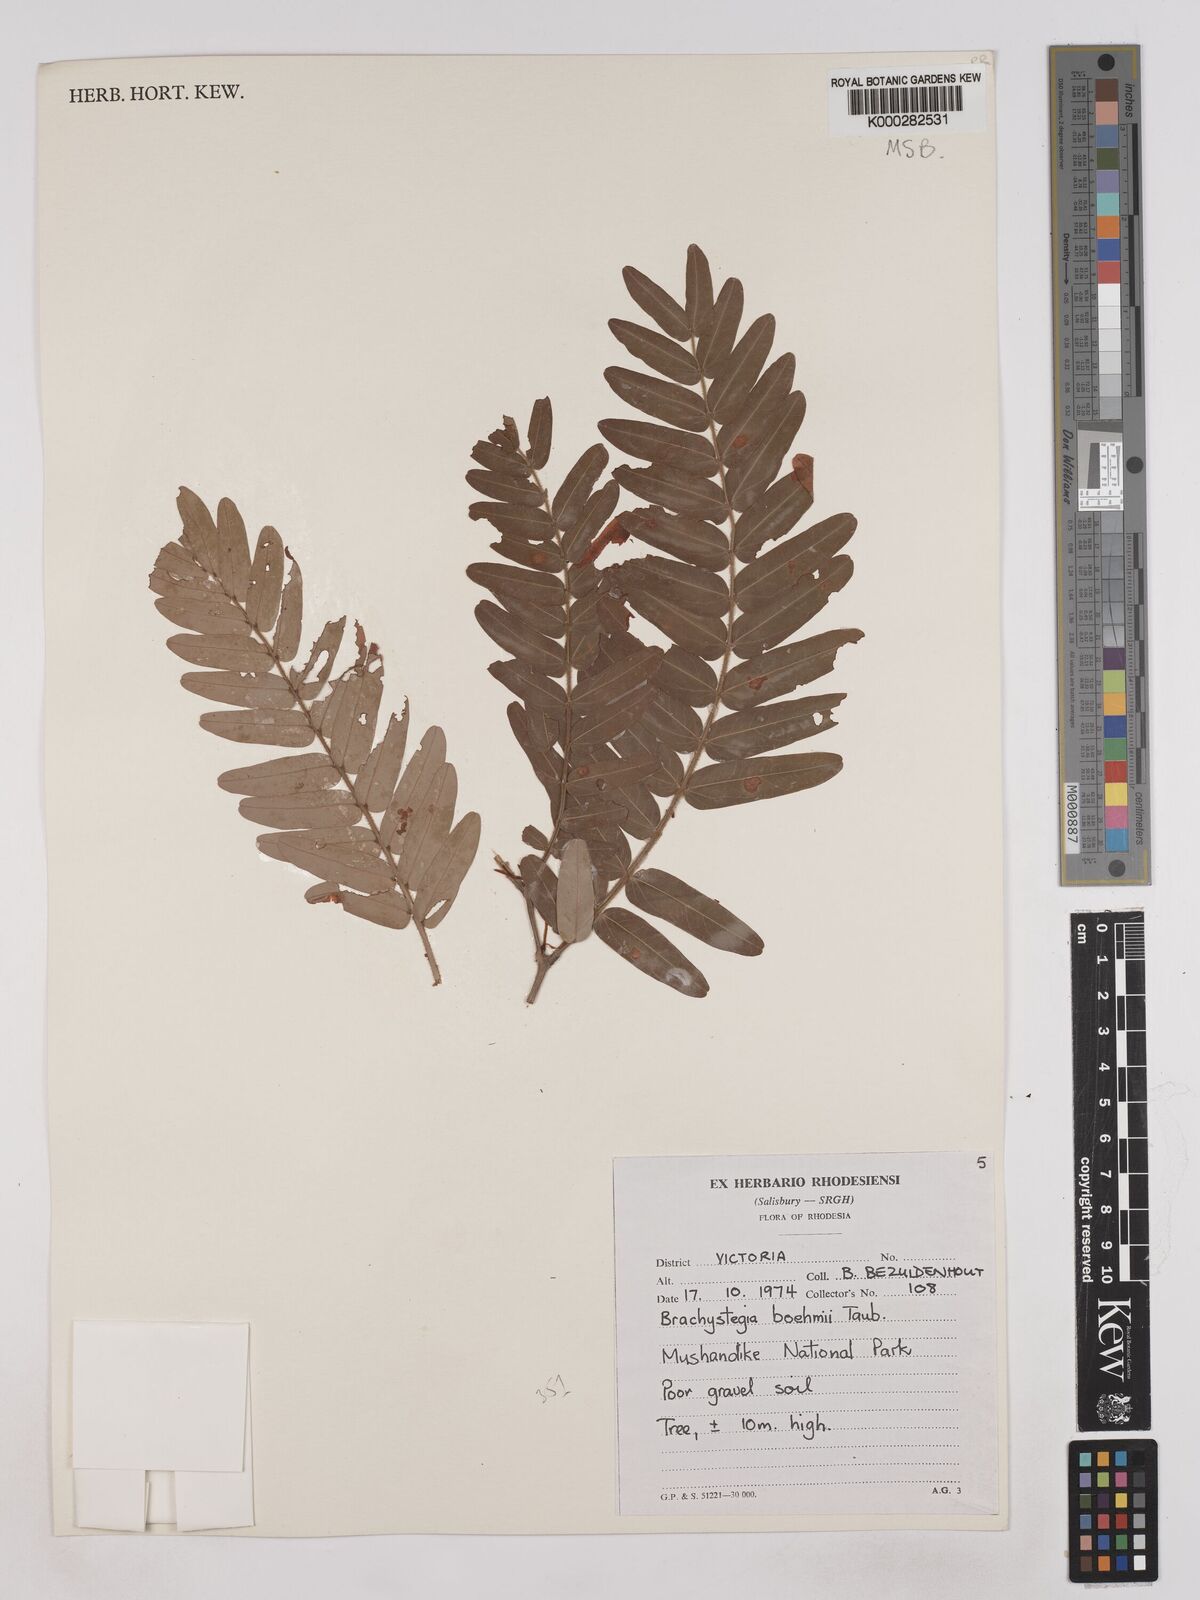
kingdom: Plantae
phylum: Tracheophyta
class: Magnoliopsida
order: Fabales
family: Fabaceae
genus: Brachystegia
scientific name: Brachystegia boehmii
